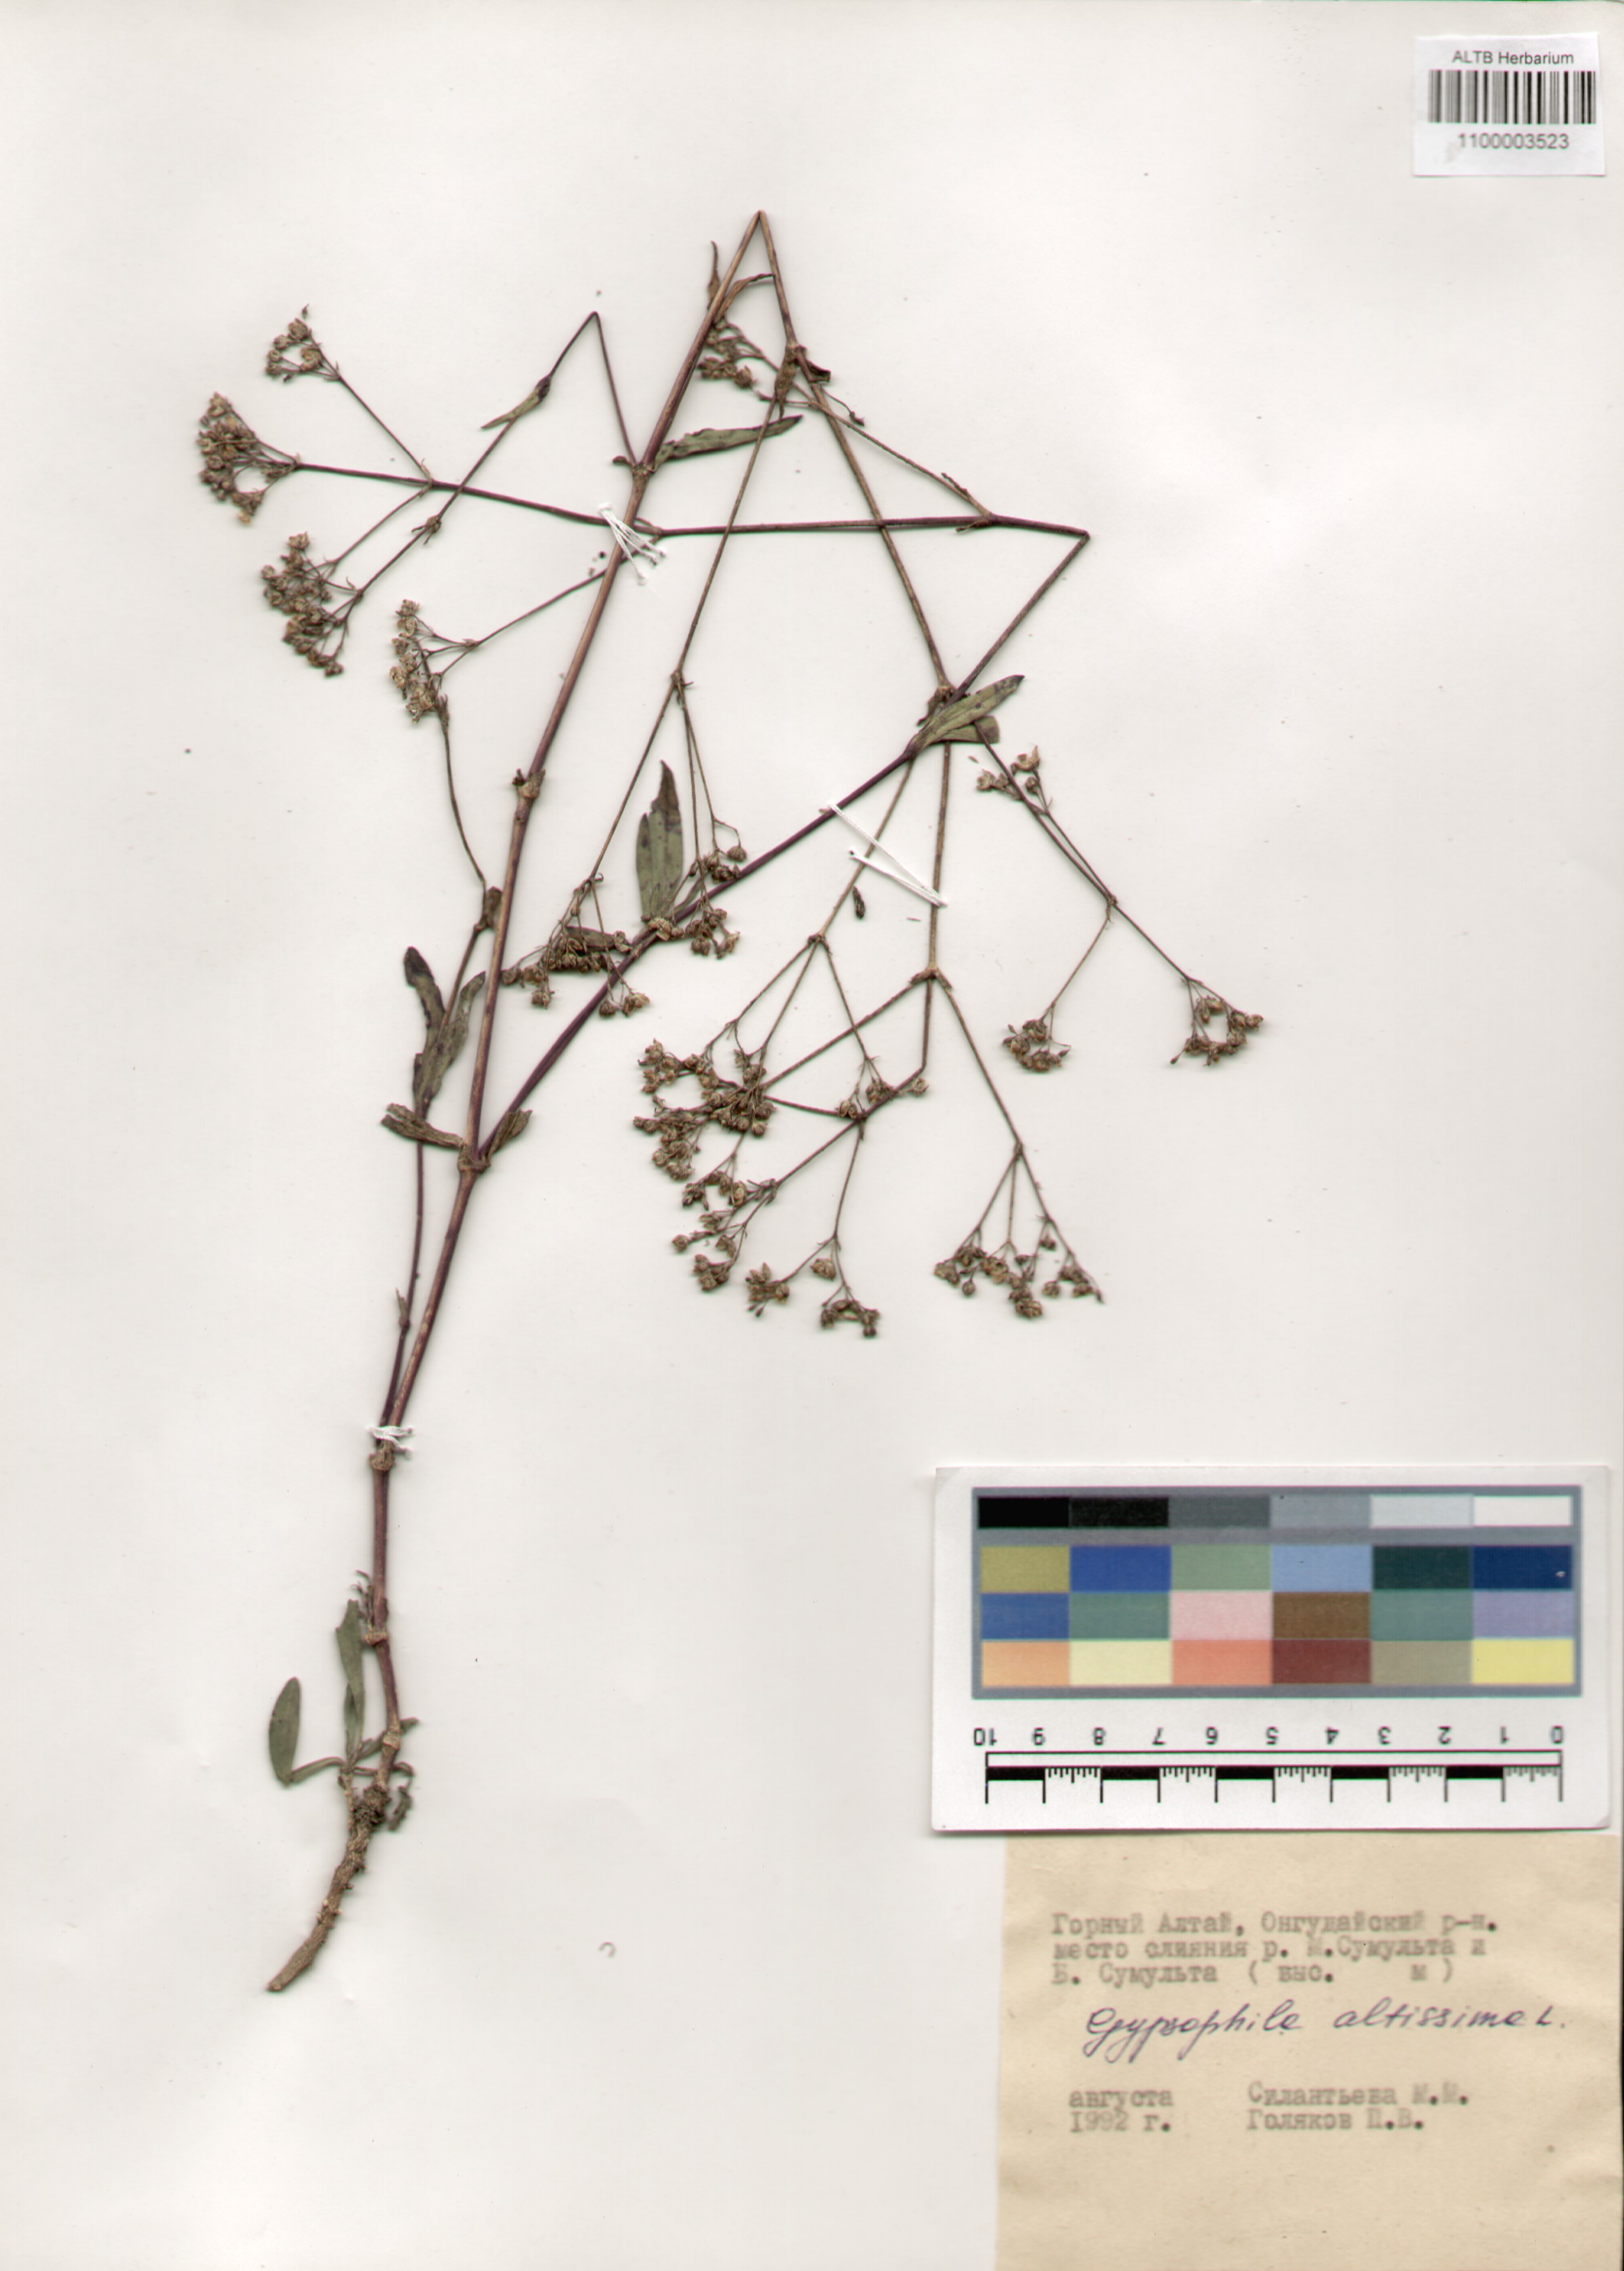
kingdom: Plantae
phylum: Tracheophyta
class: Magnoliopsida
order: Caryophyllales
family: Caryophyllaceae
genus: Gypsophila
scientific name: Gypsophila altissima
